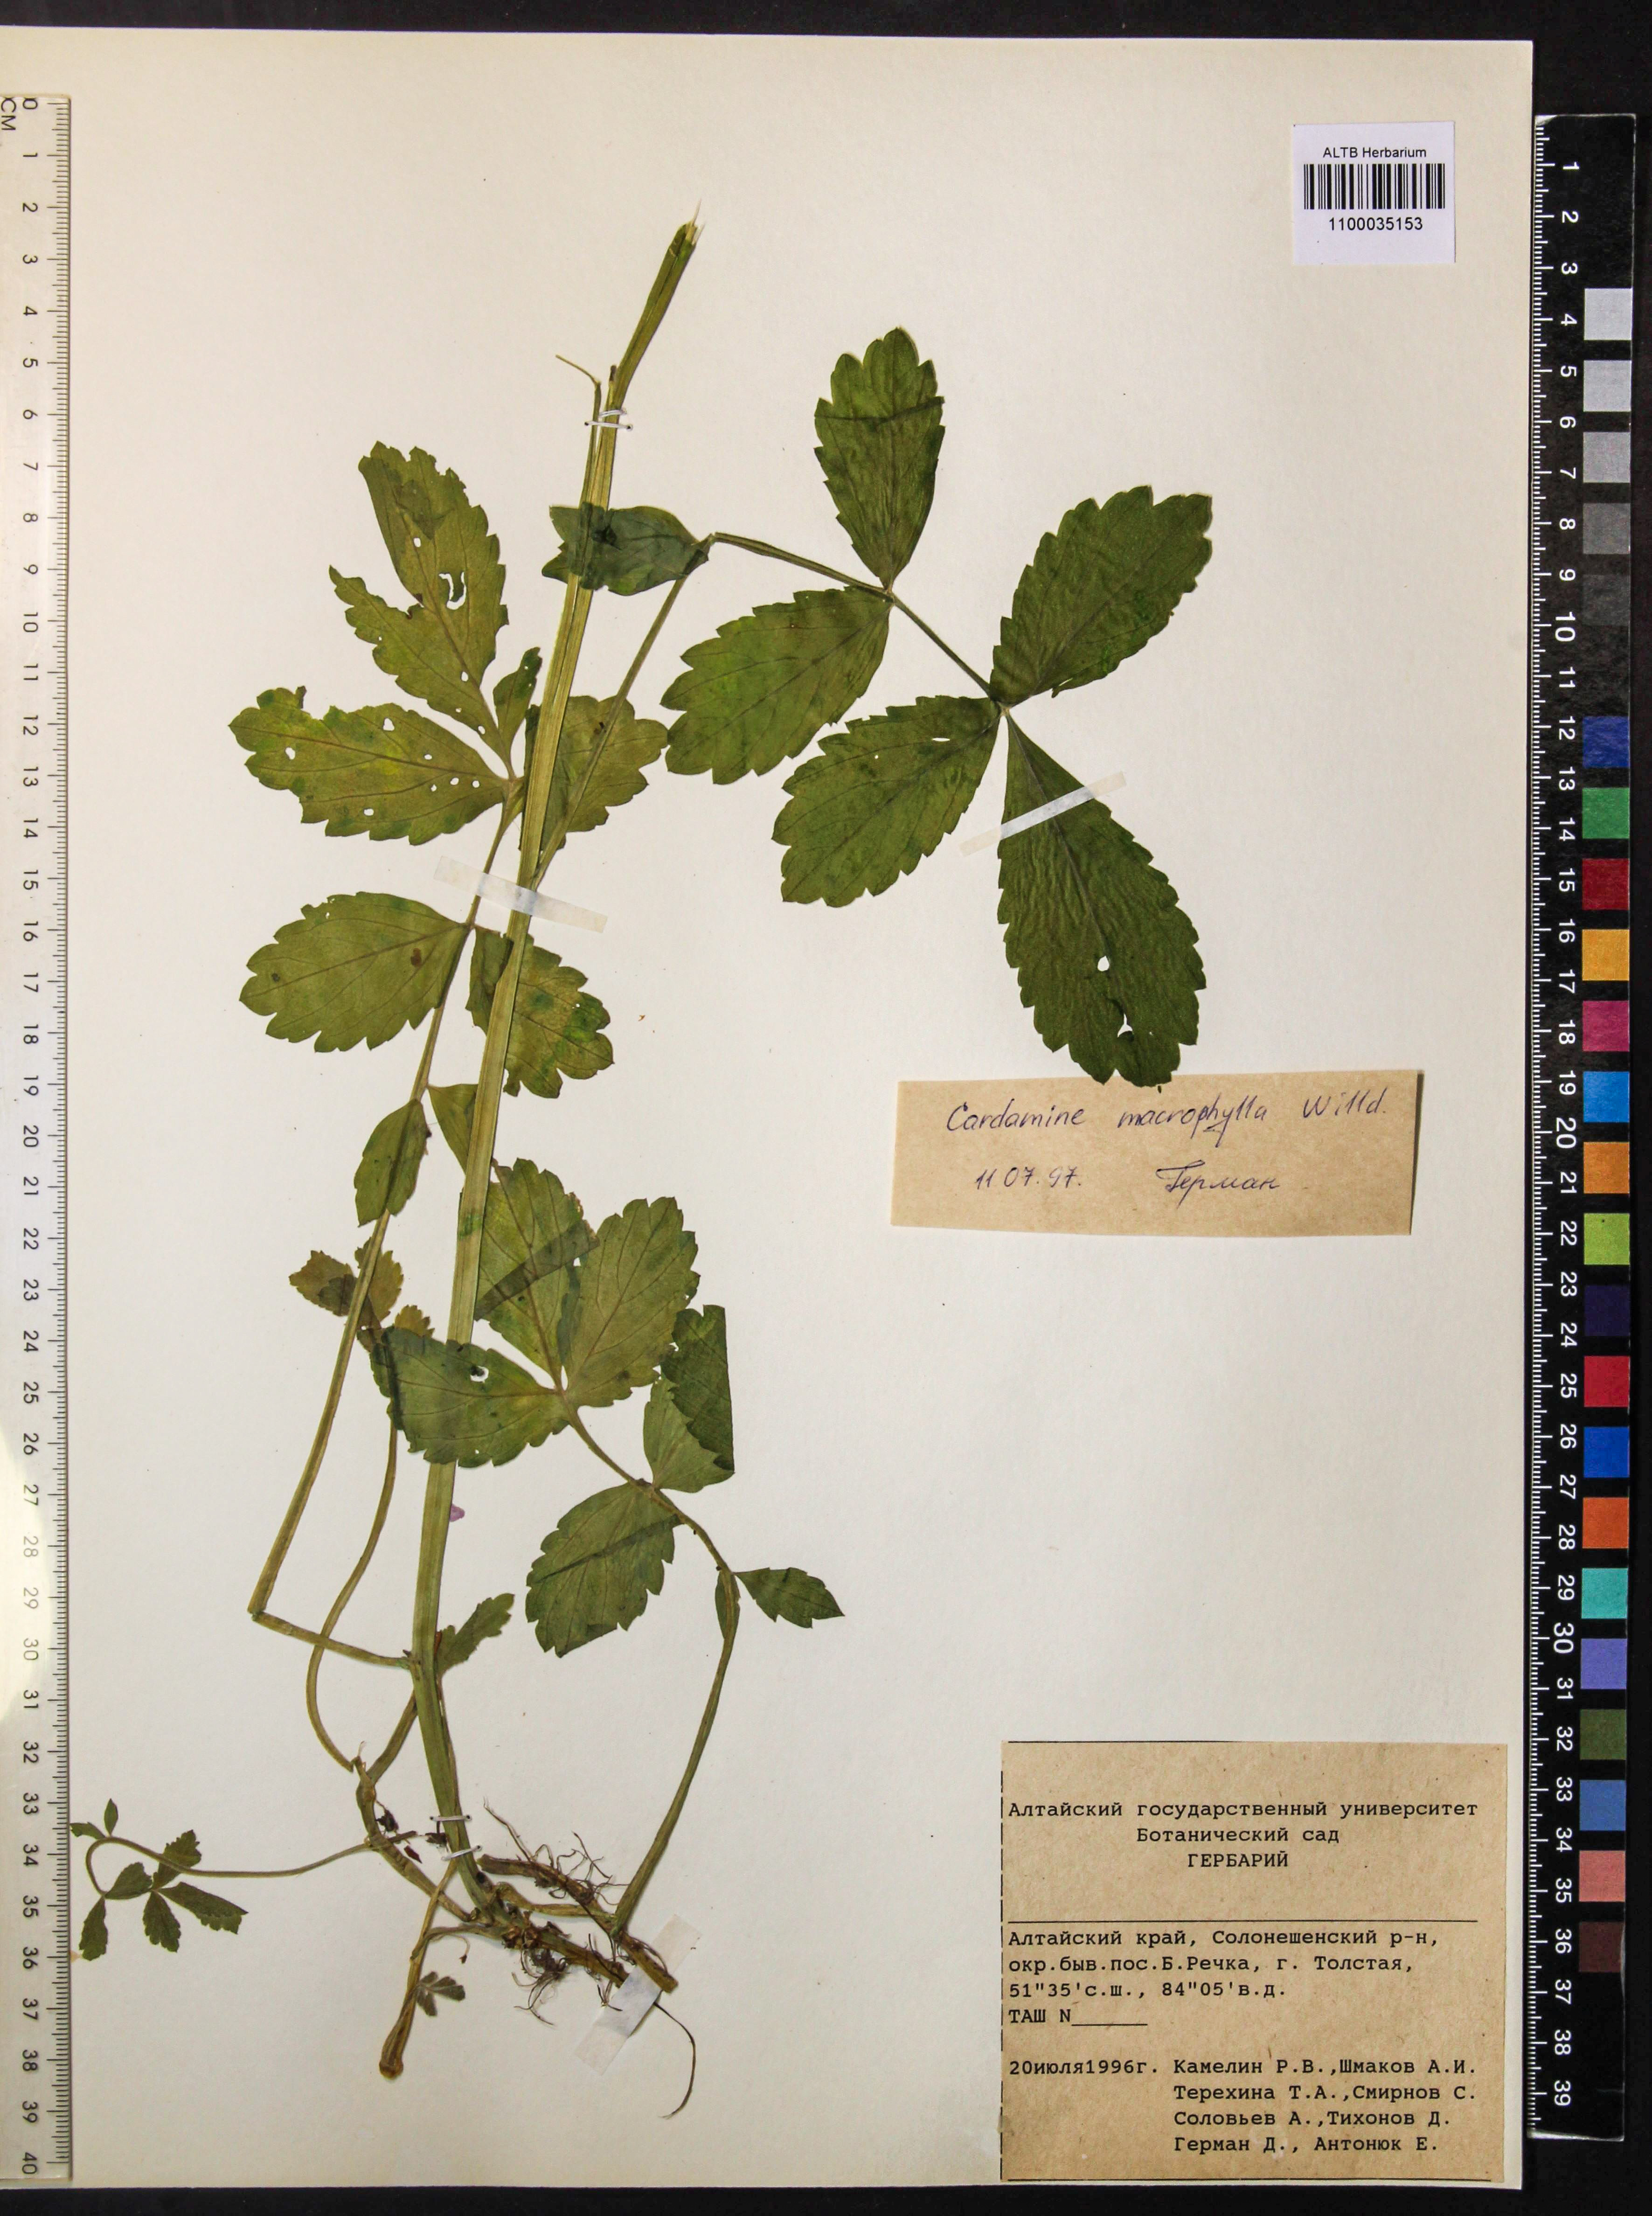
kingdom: Plantae
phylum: Tracheophyta
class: Magnoliopsida
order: Brassicales
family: Brassicaceae
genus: Cardamine
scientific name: Cardamine macrophylla
